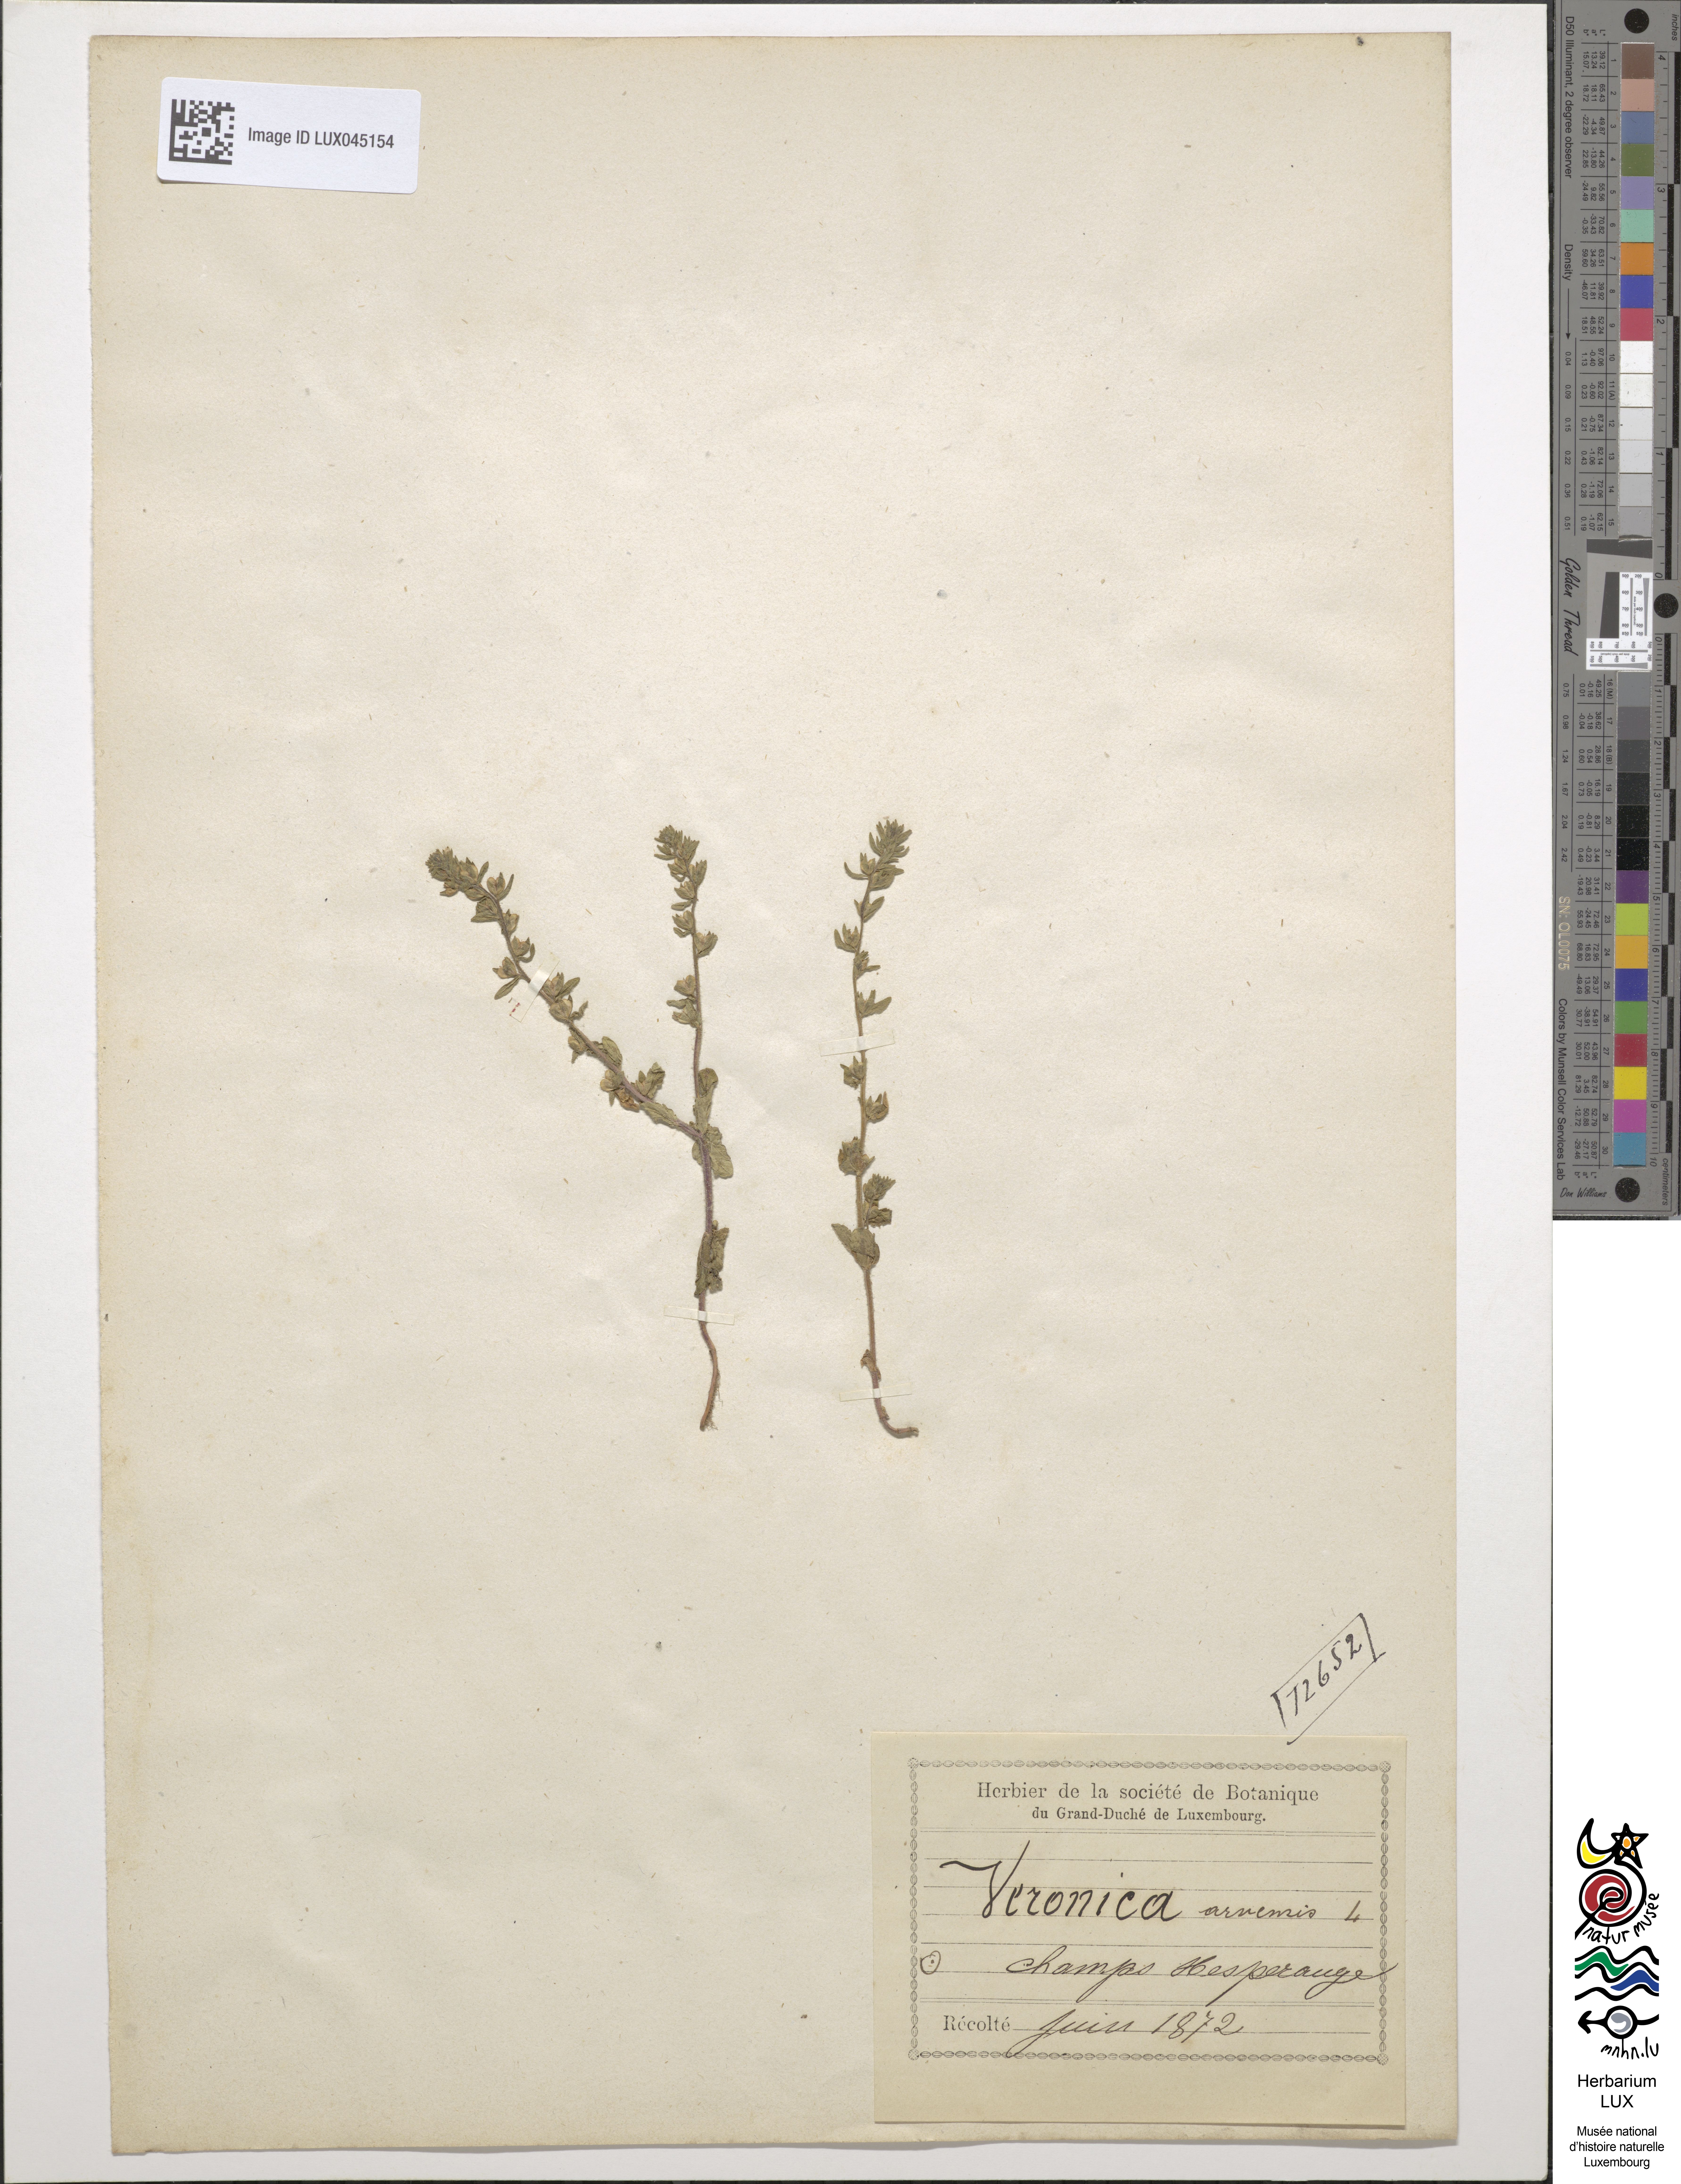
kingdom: Plantae
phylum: Tracheophyta
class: Magnoliopsida
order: Lamiales
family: Plantaginaceae
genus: Veronica
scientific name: Veronica arvensis
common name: Corn speedwell
